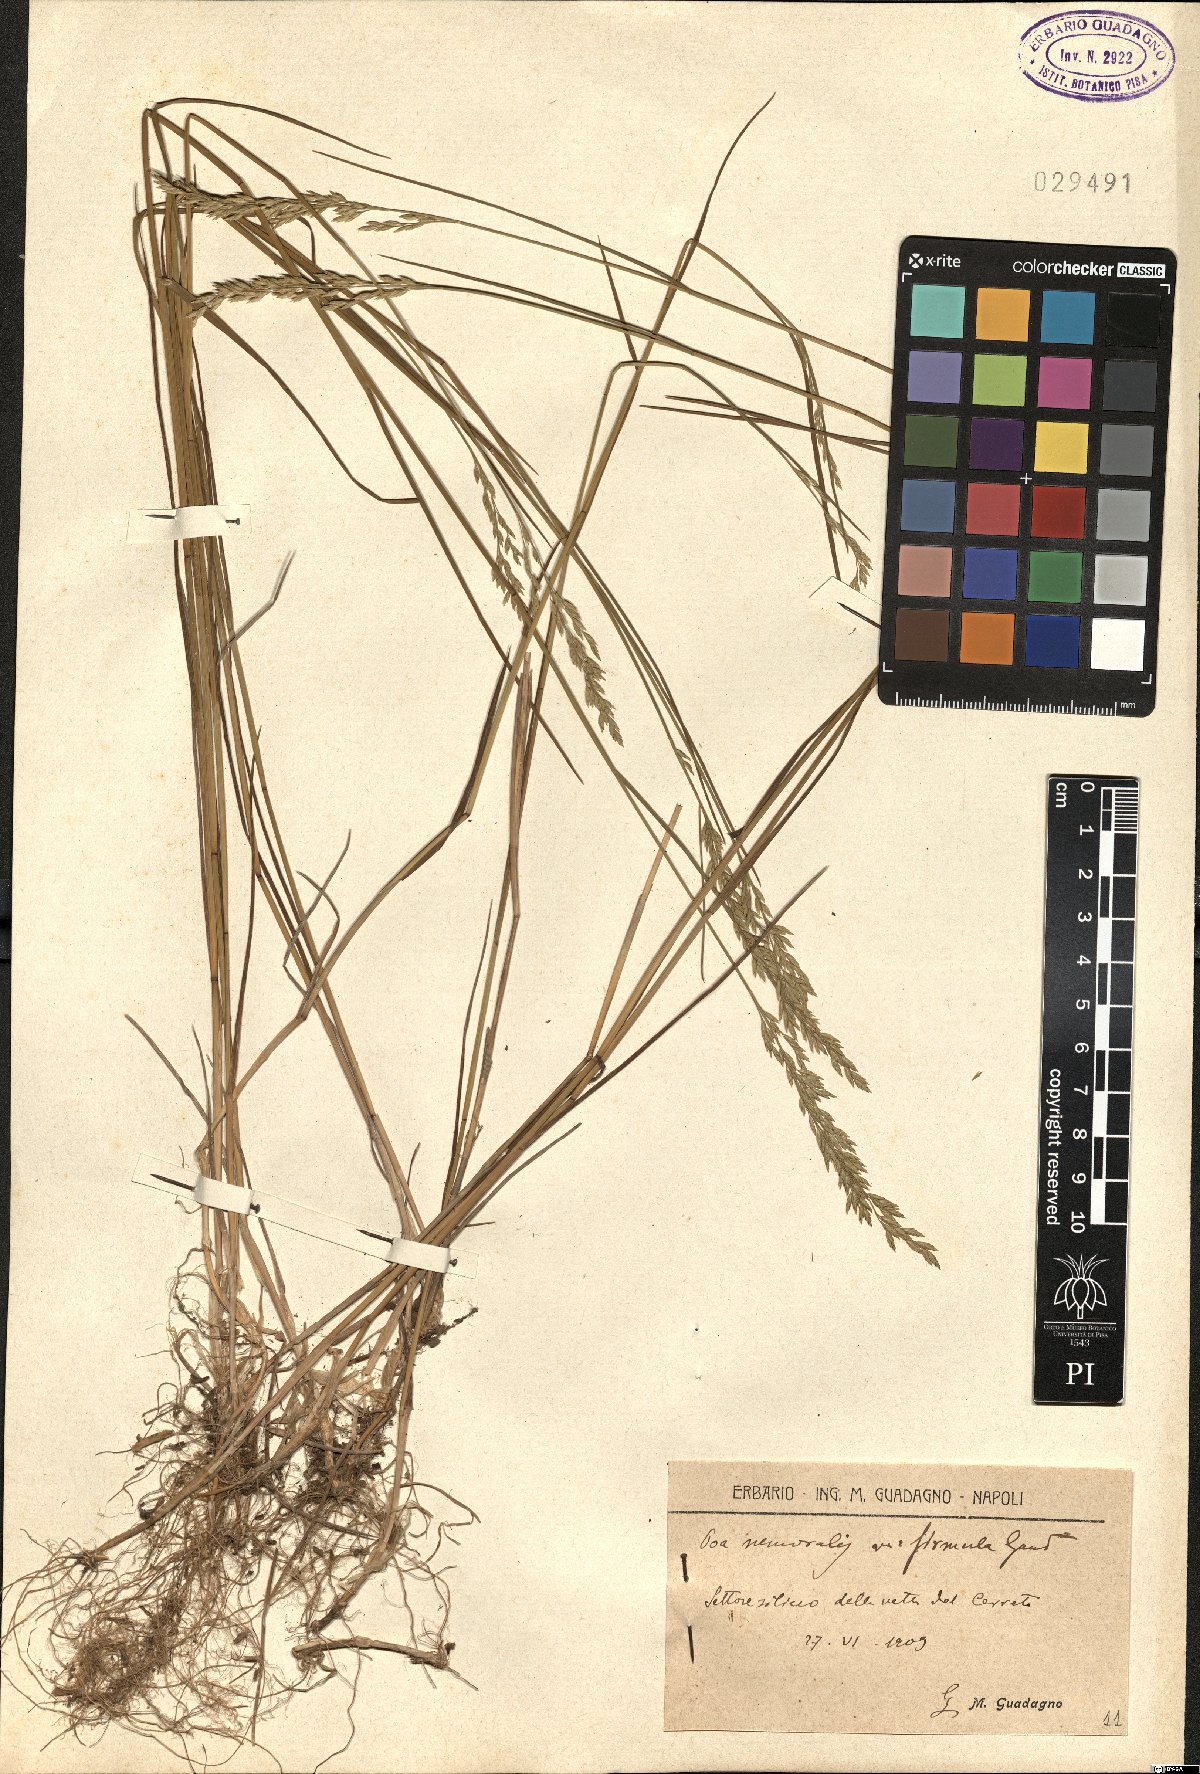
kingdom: Plantae
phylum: Tracheophyta
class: Liliopsida
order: Poales
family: Poaceae
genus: Poa
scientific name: Poa nemoralis
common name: Wood bluegrass
